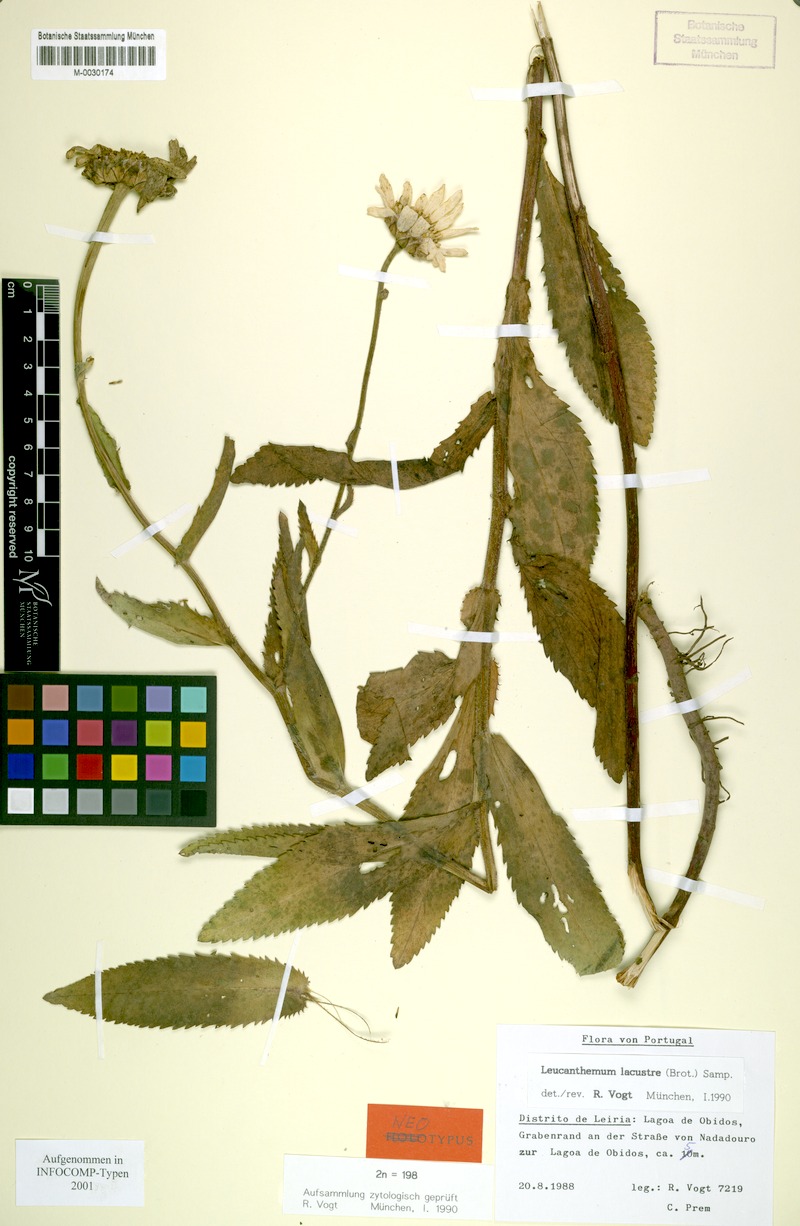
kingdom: Plantae
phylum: Tracheophyta
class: Magnoliopsida
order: Asterales
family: Asteraceae
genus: Leucanthemum
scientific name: Leucanthemum lacustre
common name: Portuguese daisy
